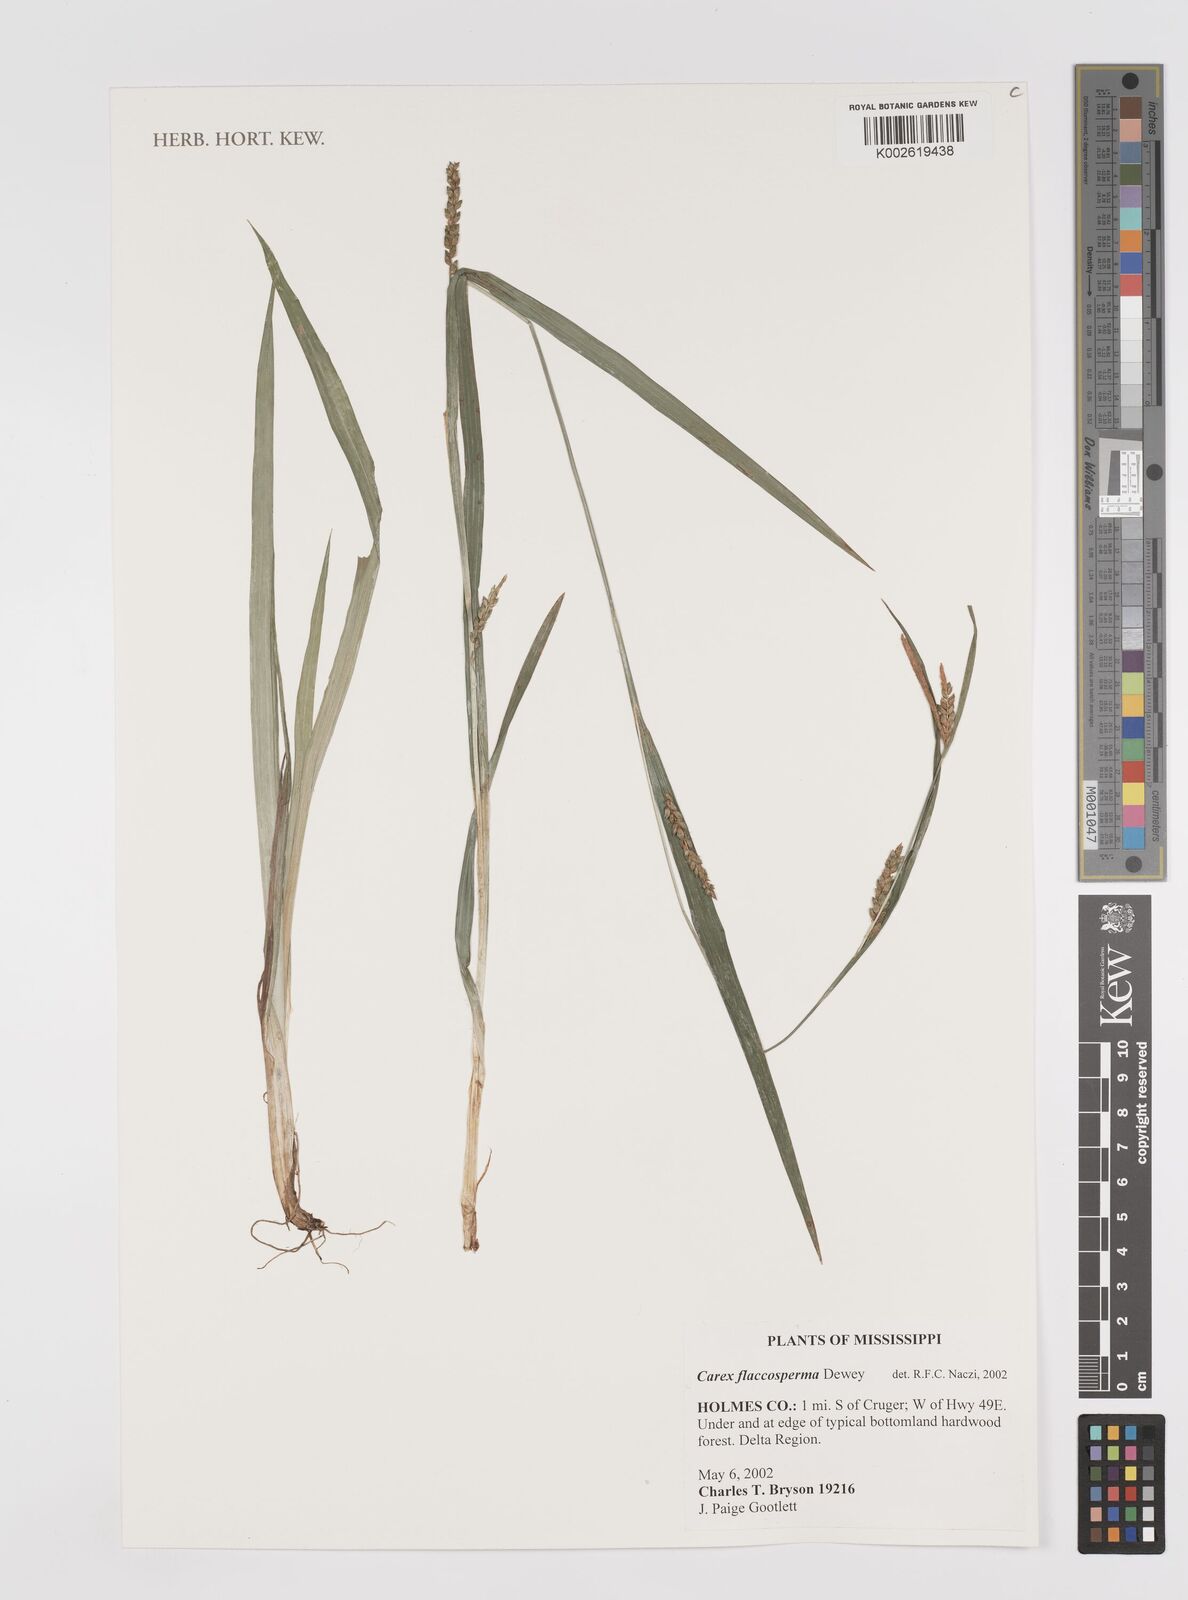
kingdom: Plantae
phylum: Tracheophyta
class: Liliopsida
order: Poales
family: Cyperaceae
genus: Carex
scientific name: Carex flaccosperma
